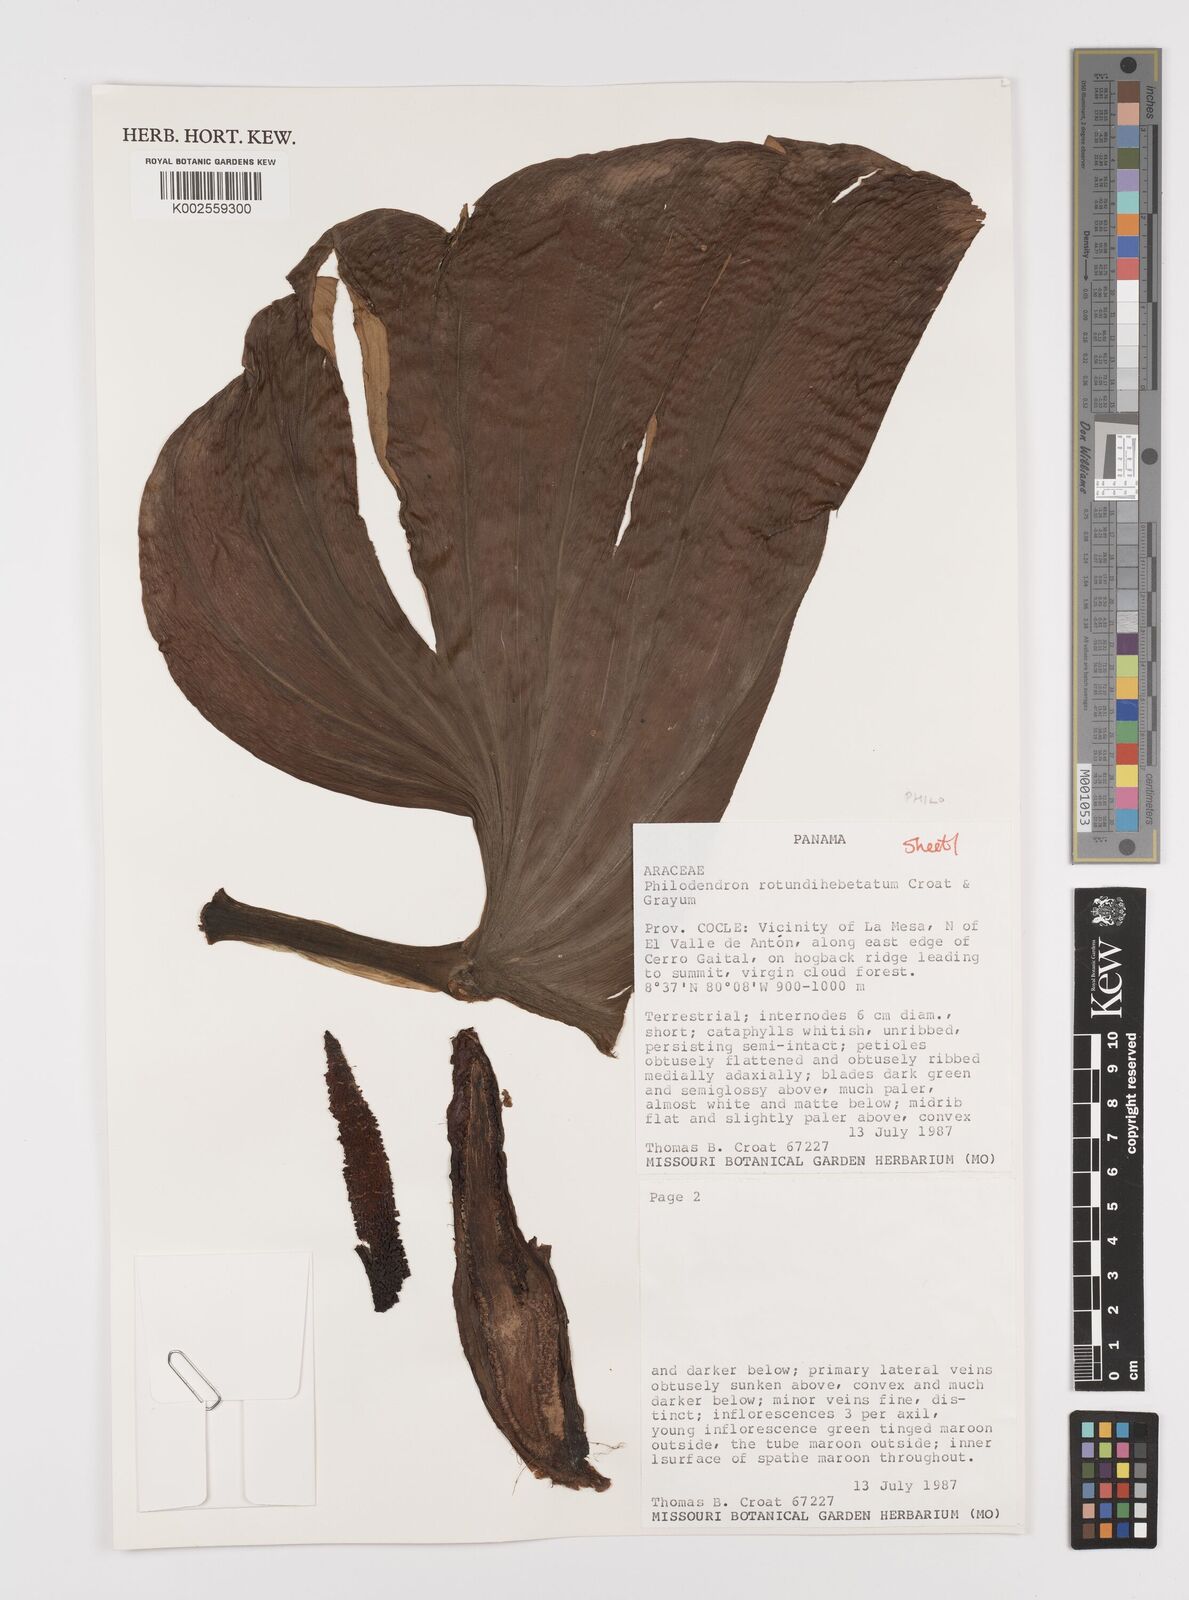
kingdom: Plantae
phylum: Tracheophyta
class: Liliopsida
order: Alismatales
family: Araceae
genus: Philodendron
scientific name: Philodendron
